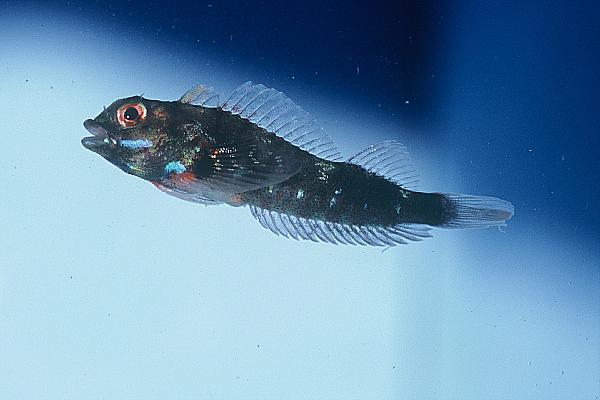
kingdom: Animalia
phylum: Chordata
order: Perciformes
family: Tripterygiidae
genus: Helcogramma
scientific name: Helcogramma rharhabe
